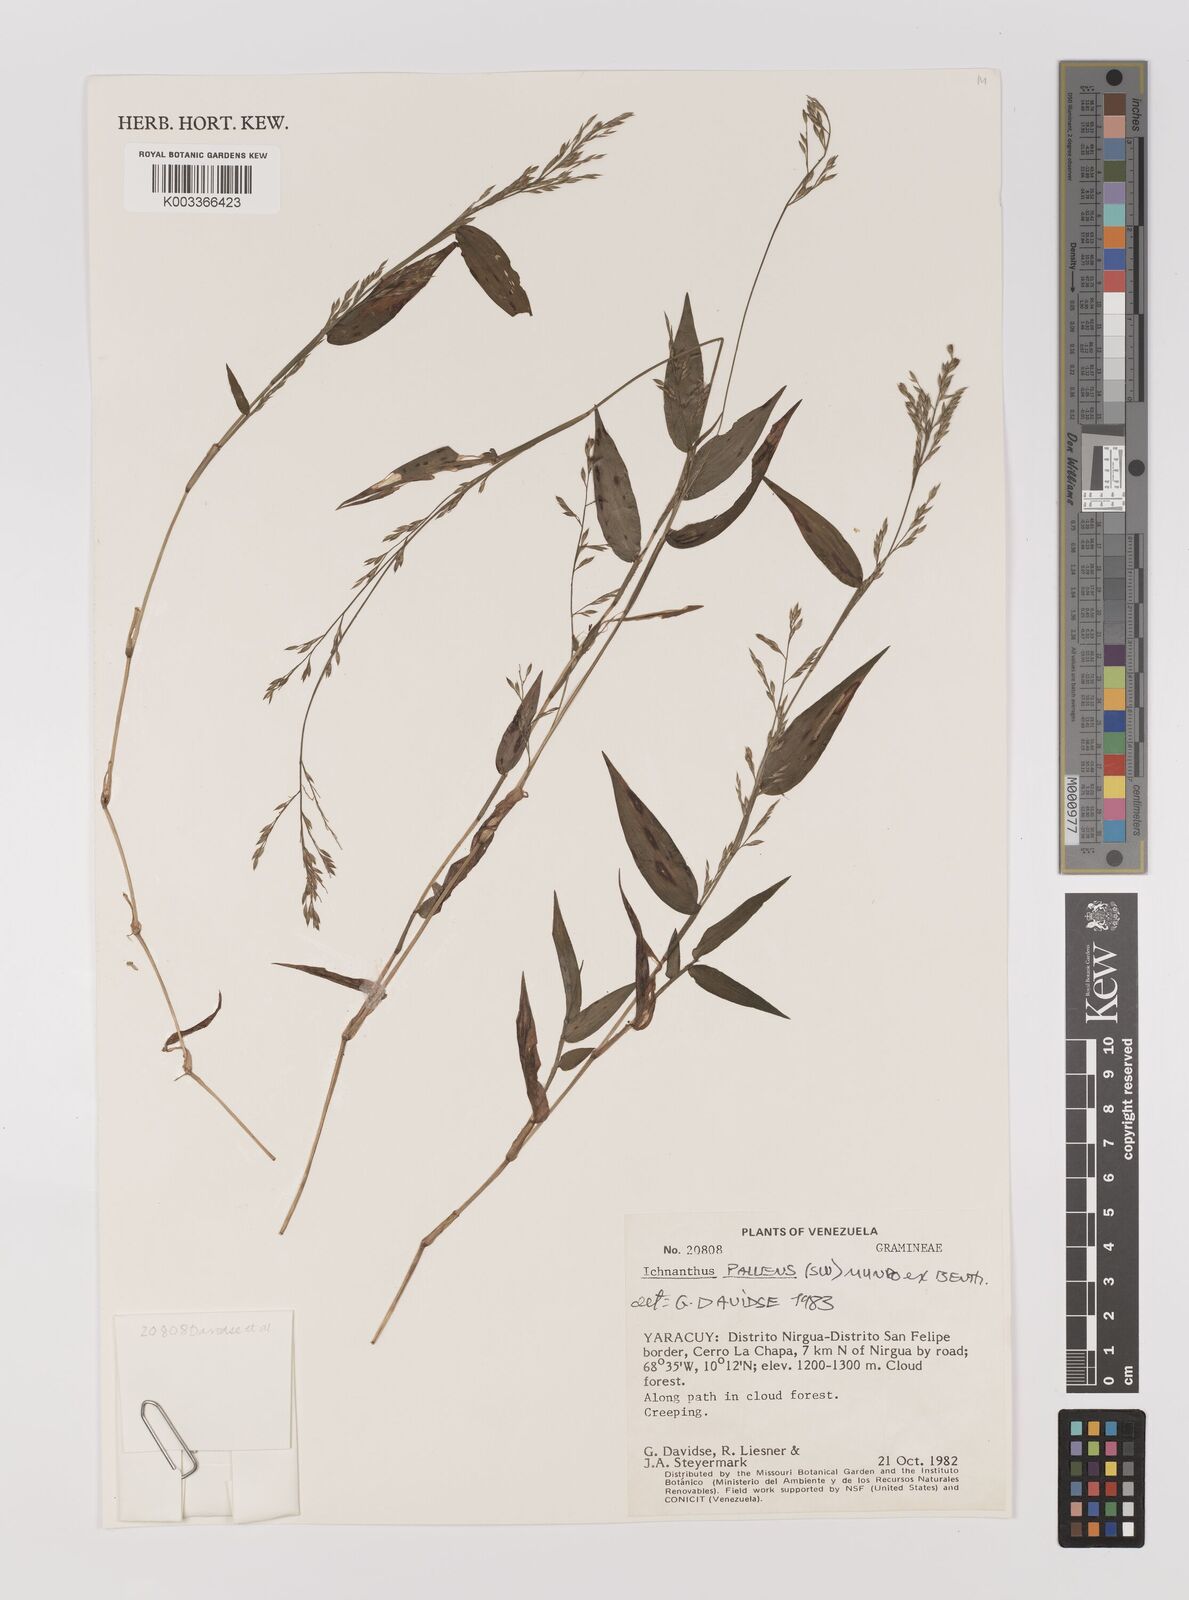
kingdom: Plantae
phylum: Tracheophyta
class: Liliopsida
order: Poales
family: Poaceae
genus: Ichnanthus
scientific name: Ichnanthus pallens
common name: Water grass
